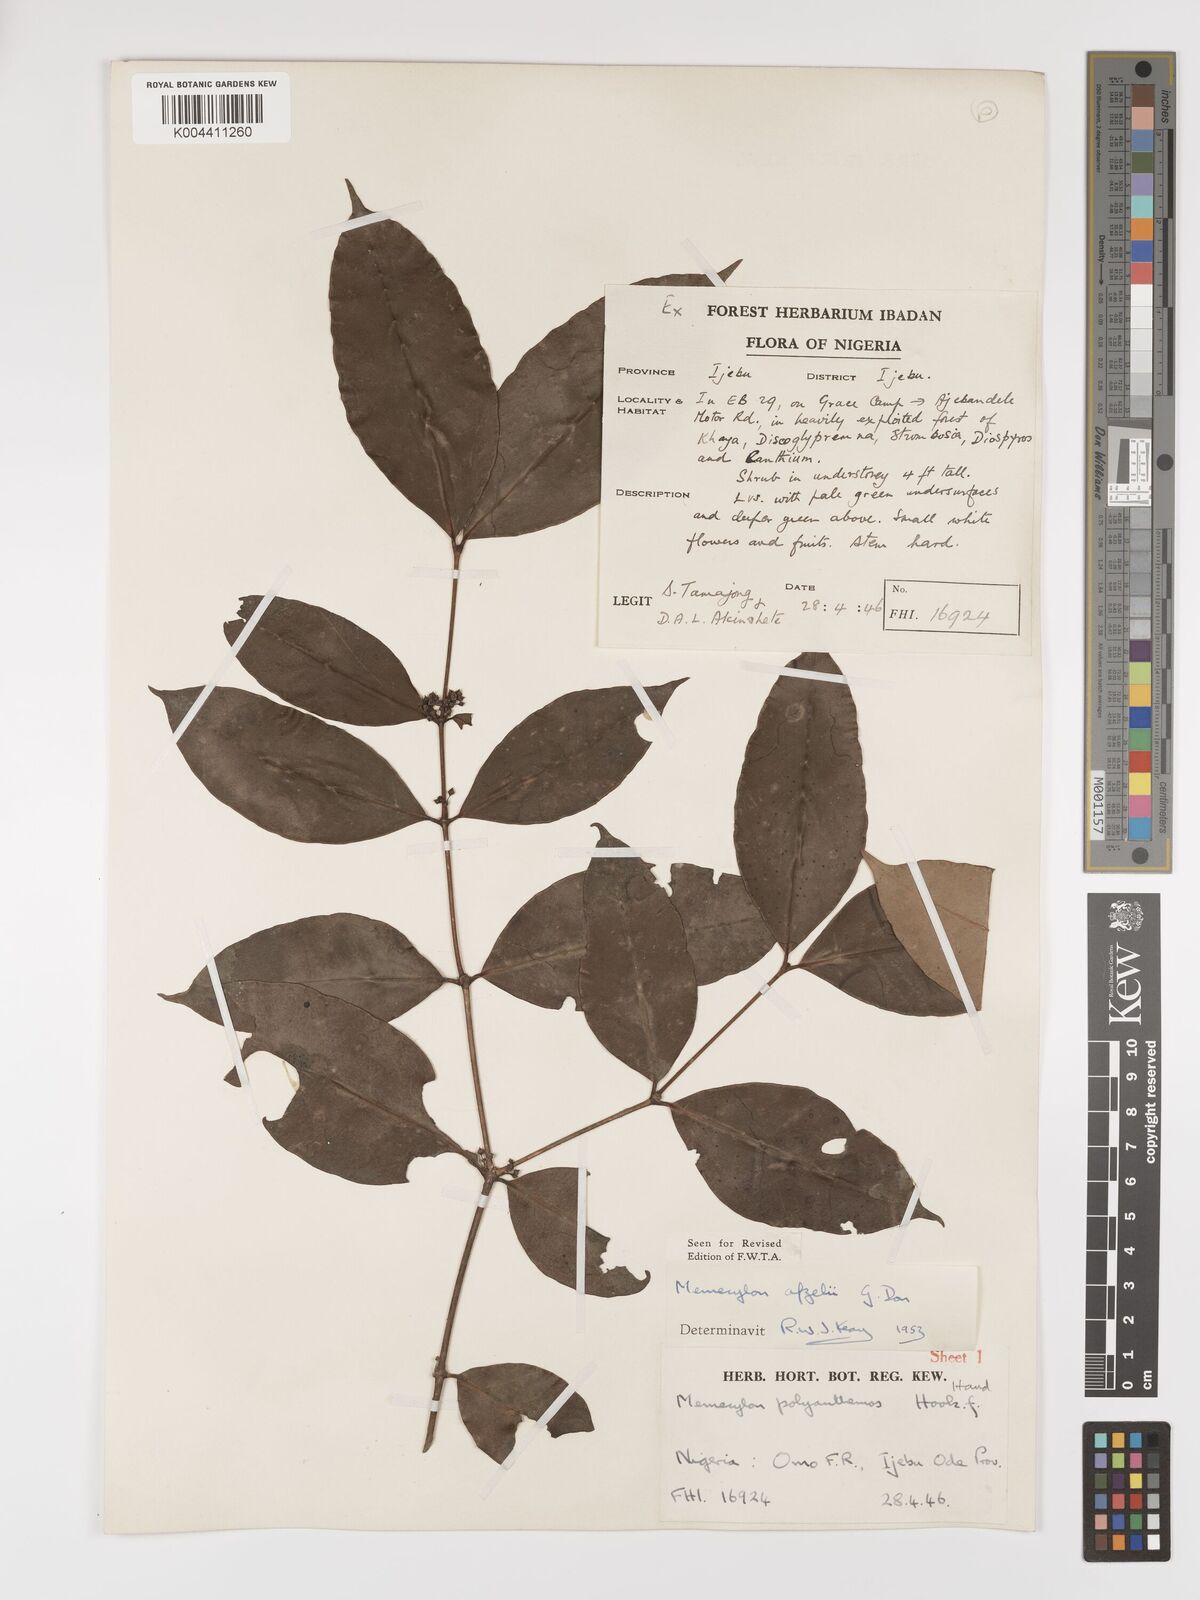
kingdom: Plantae
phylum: Tracheophyta
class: Magnoliopsida
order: Myrtales
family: Melastomataceae
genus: Memecylon
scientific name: Memecylon afzelii
